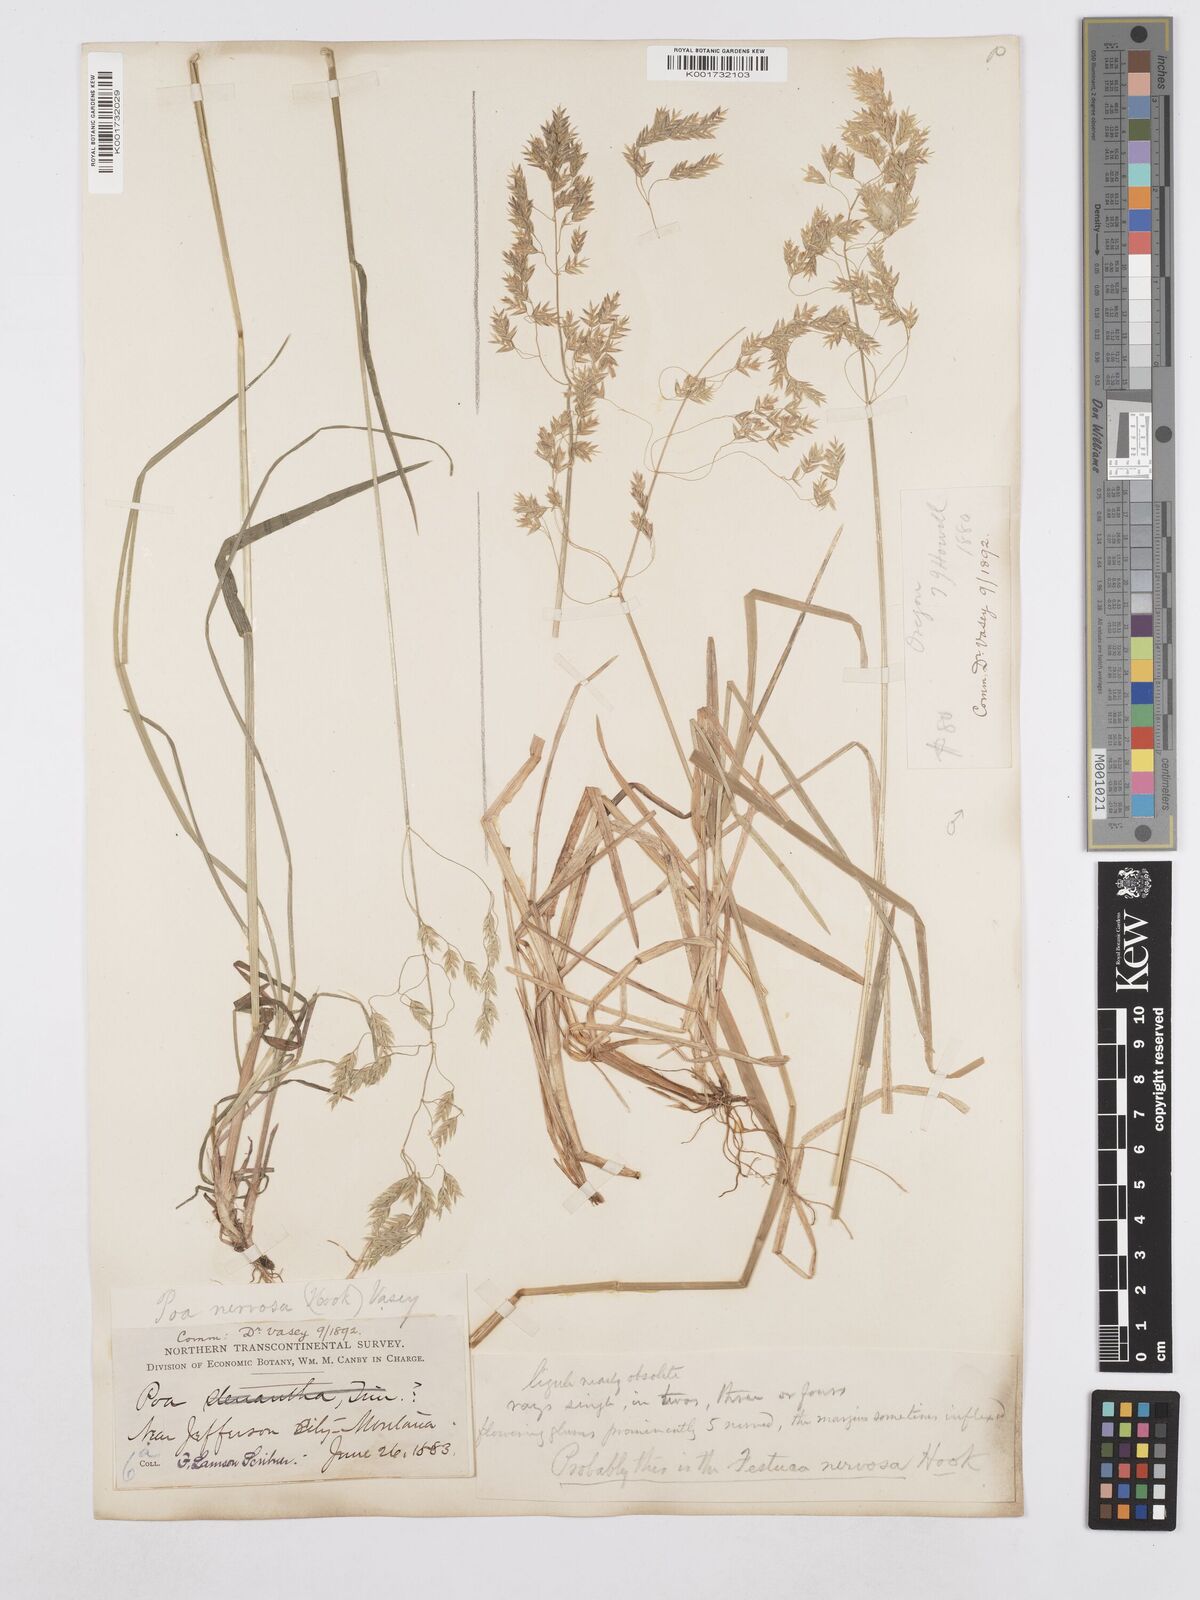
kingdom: Plantae
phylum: Tracheophyta
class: Liliopsida
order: Poales
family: Poaceae
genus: Poa
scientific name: Poa nervosa
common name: Hooker's bluegrass
